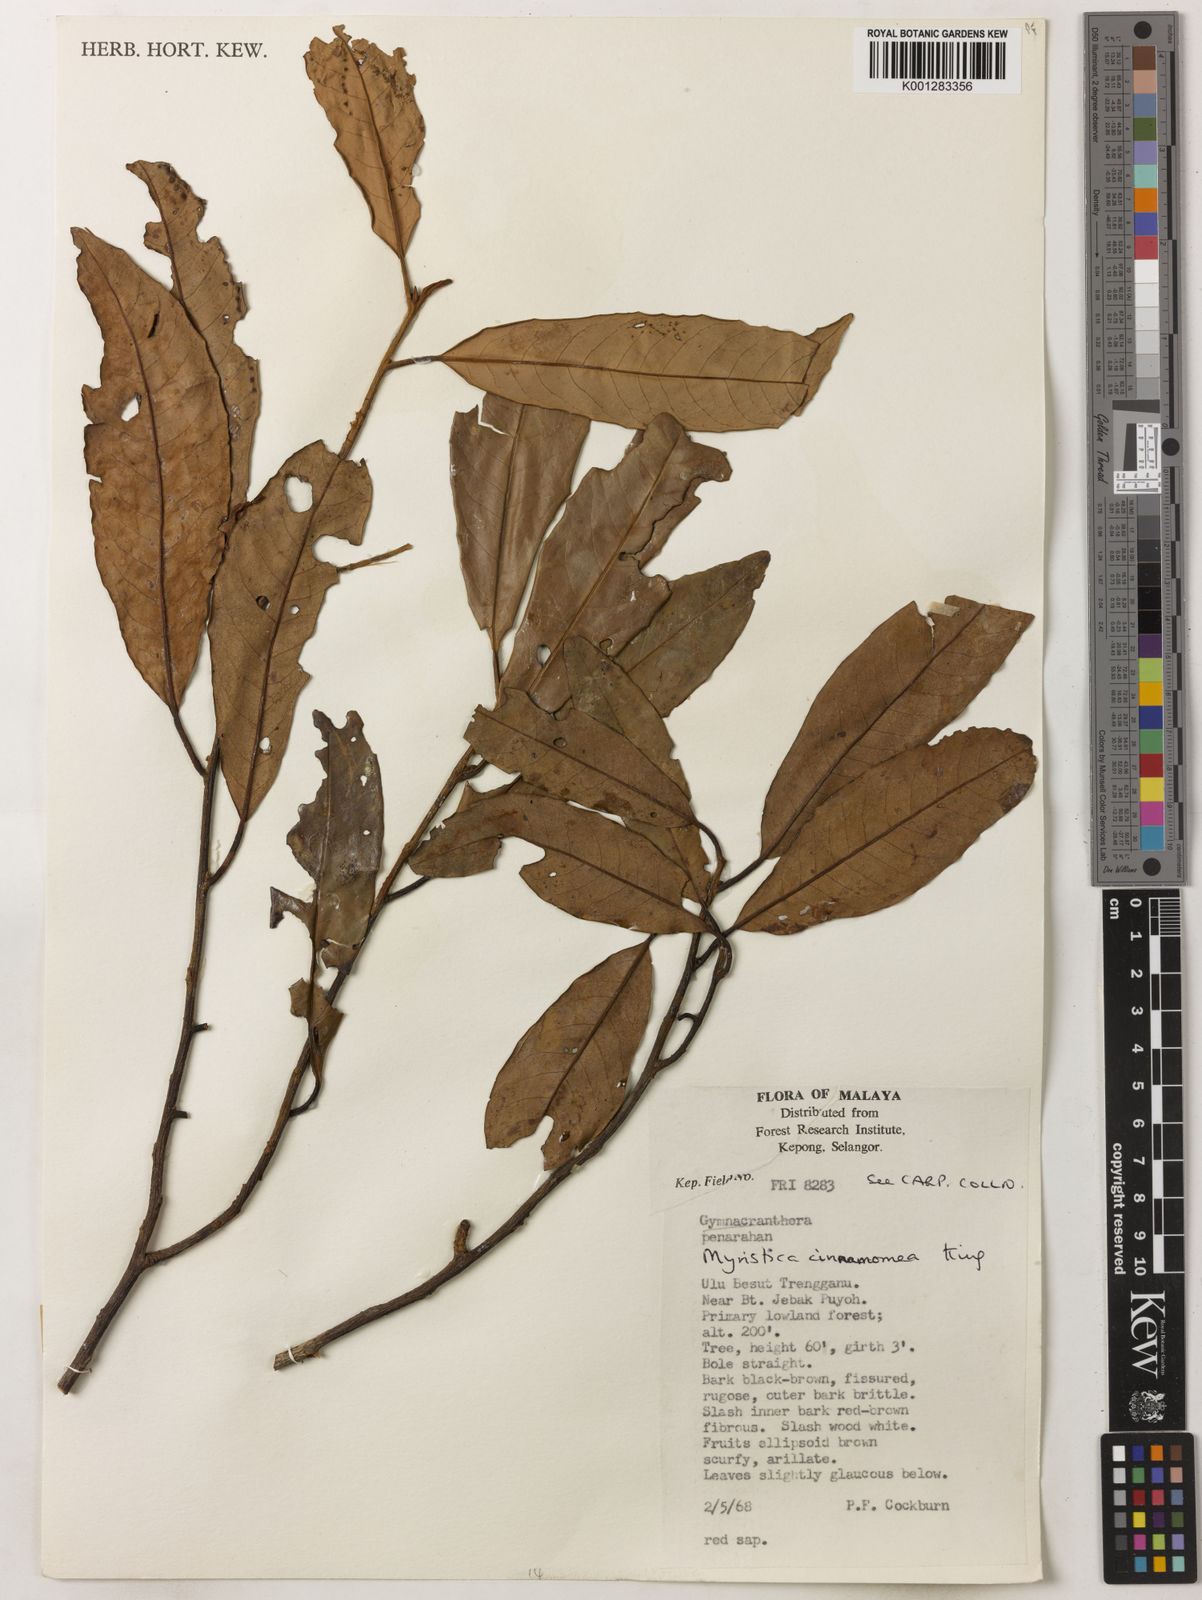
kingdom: Plantae
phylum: Tracheophyta
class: Magnoliopsida
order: Magnoliales
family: Myristicaceae
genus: Myristica
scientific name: Myristica cinnamomea
